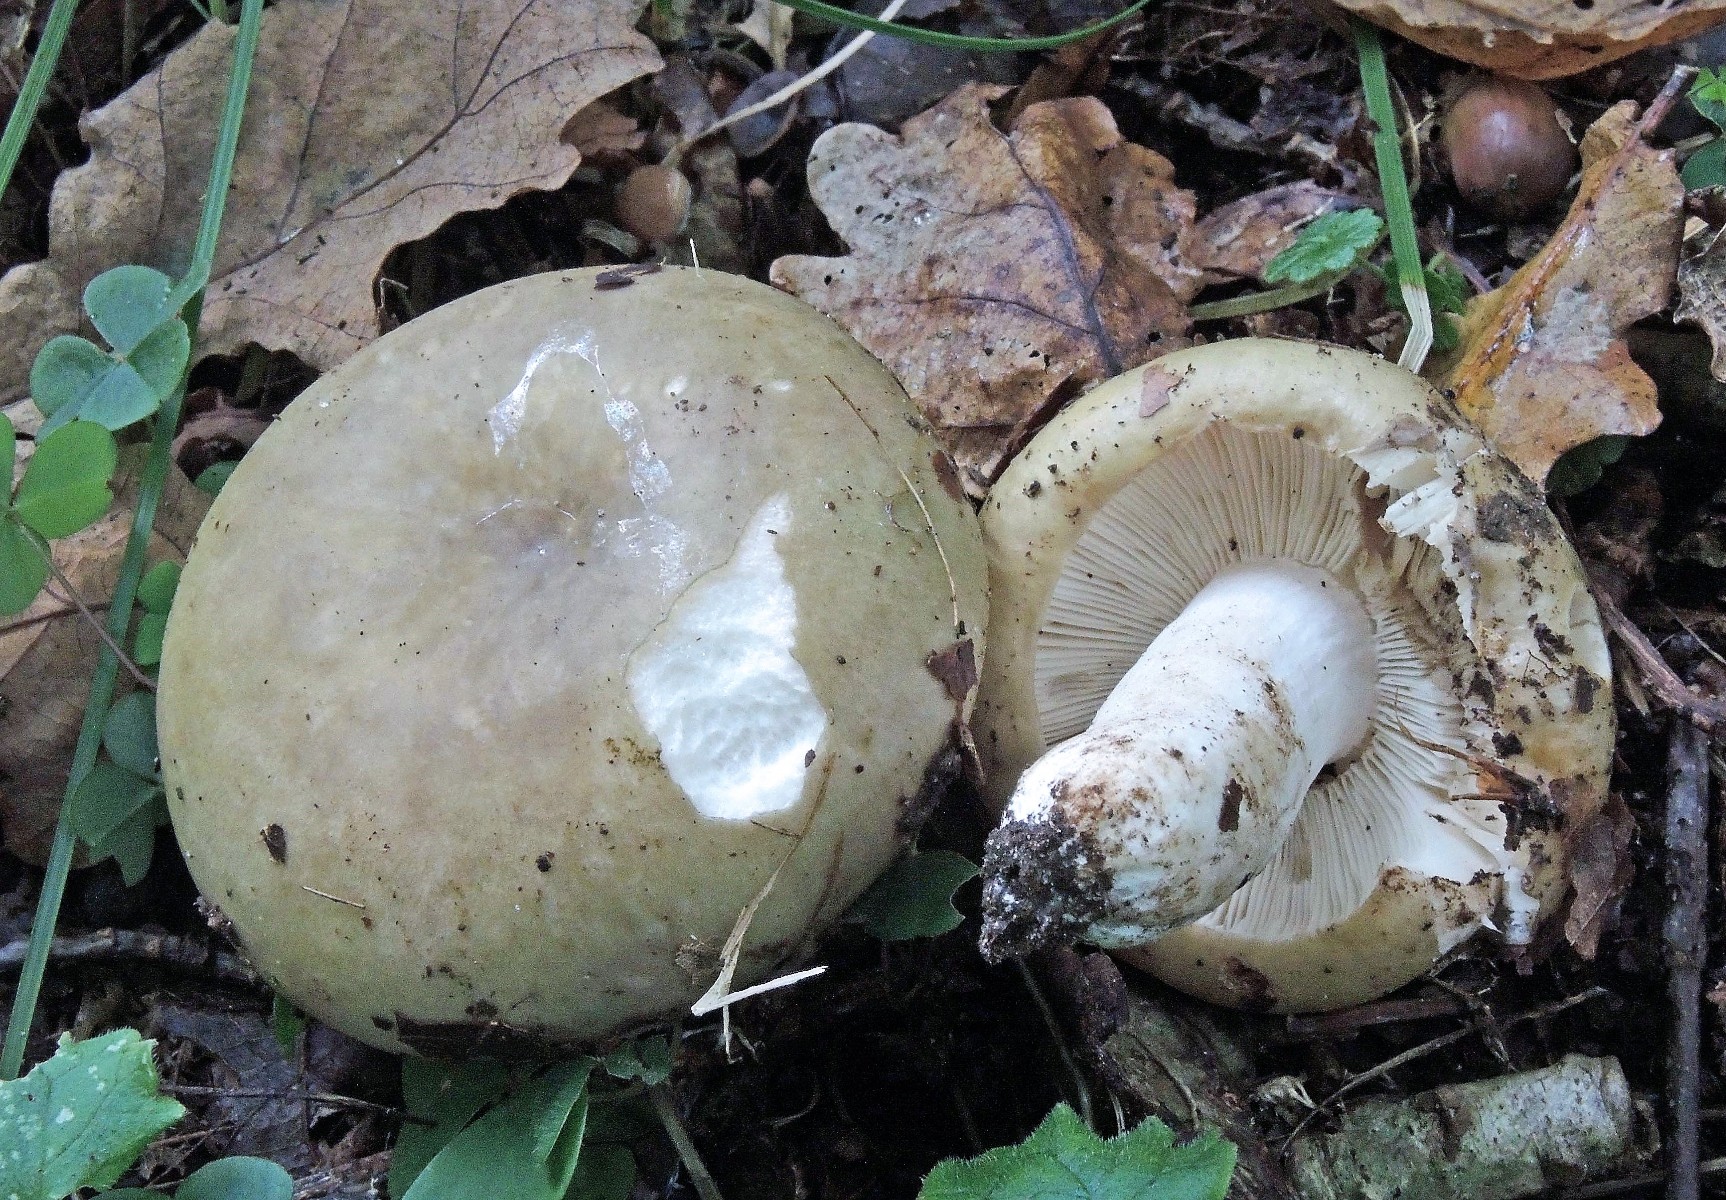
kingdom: Fungi
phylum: Basidiomycota
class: Agaricomycetes
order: Russulales
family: Russulaceae
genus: Russula
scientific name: Russula violeipes
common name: ferskengul skørhat
